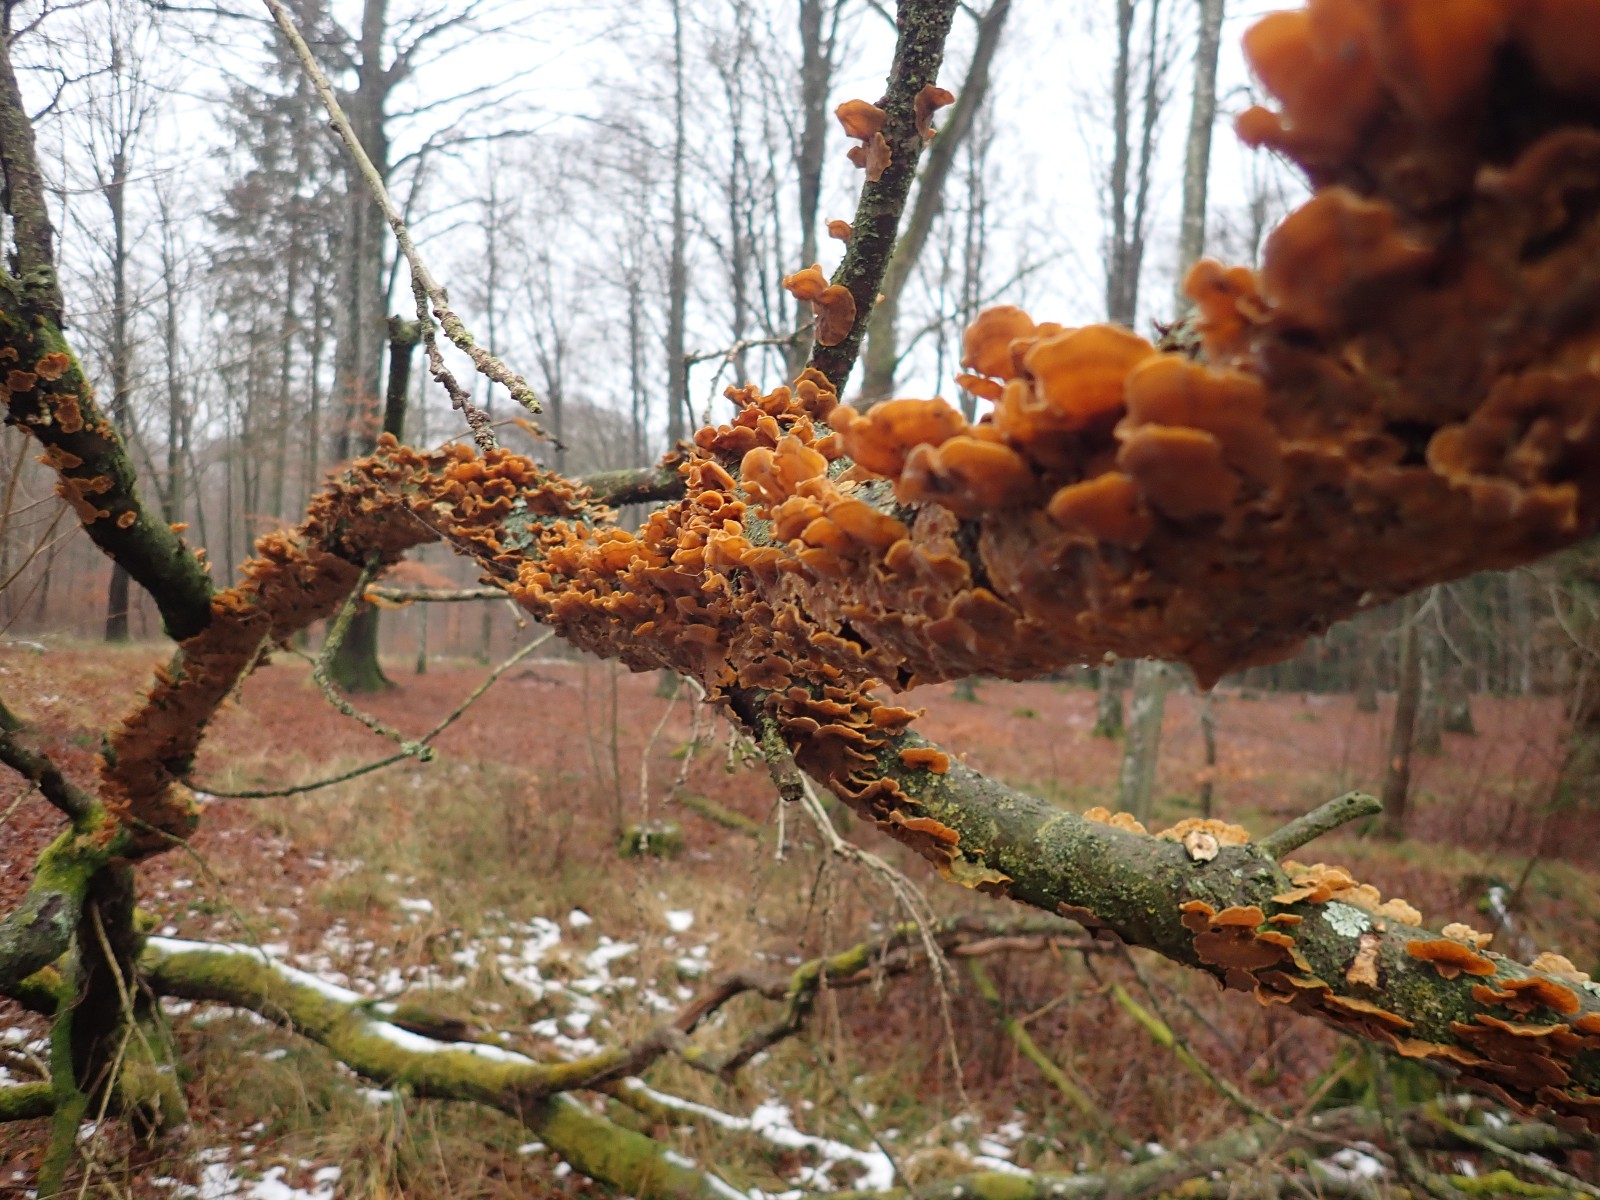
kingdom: Fungi
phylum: Basidiomycota
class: Agaricomycetes
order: Russulales
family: Stereaceae
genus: Stereum
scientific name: Stereum hirsutum
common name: håret lædersvamp
